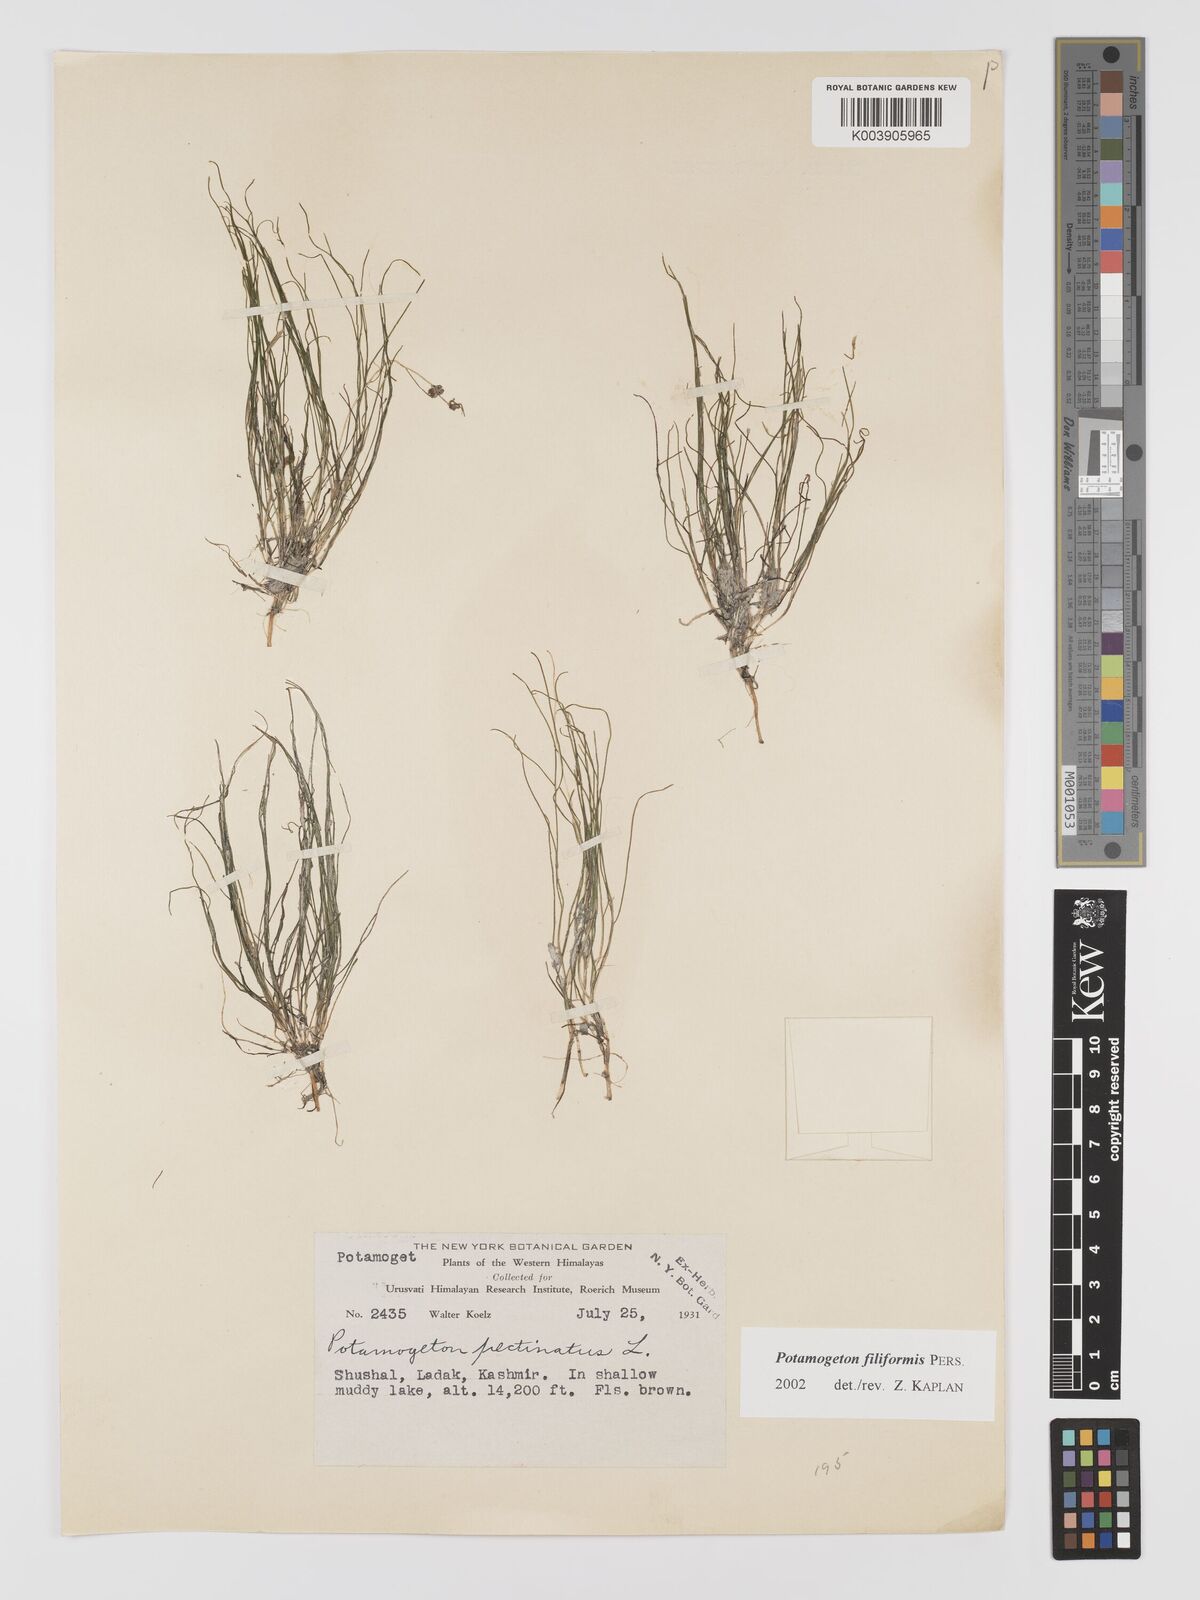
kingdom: Plantae
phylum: Tracheophyta
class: Liliopsida
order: Alismatales
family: Potamogetonaceae
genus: Potamogeton
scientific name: Potamogeton filiformis
